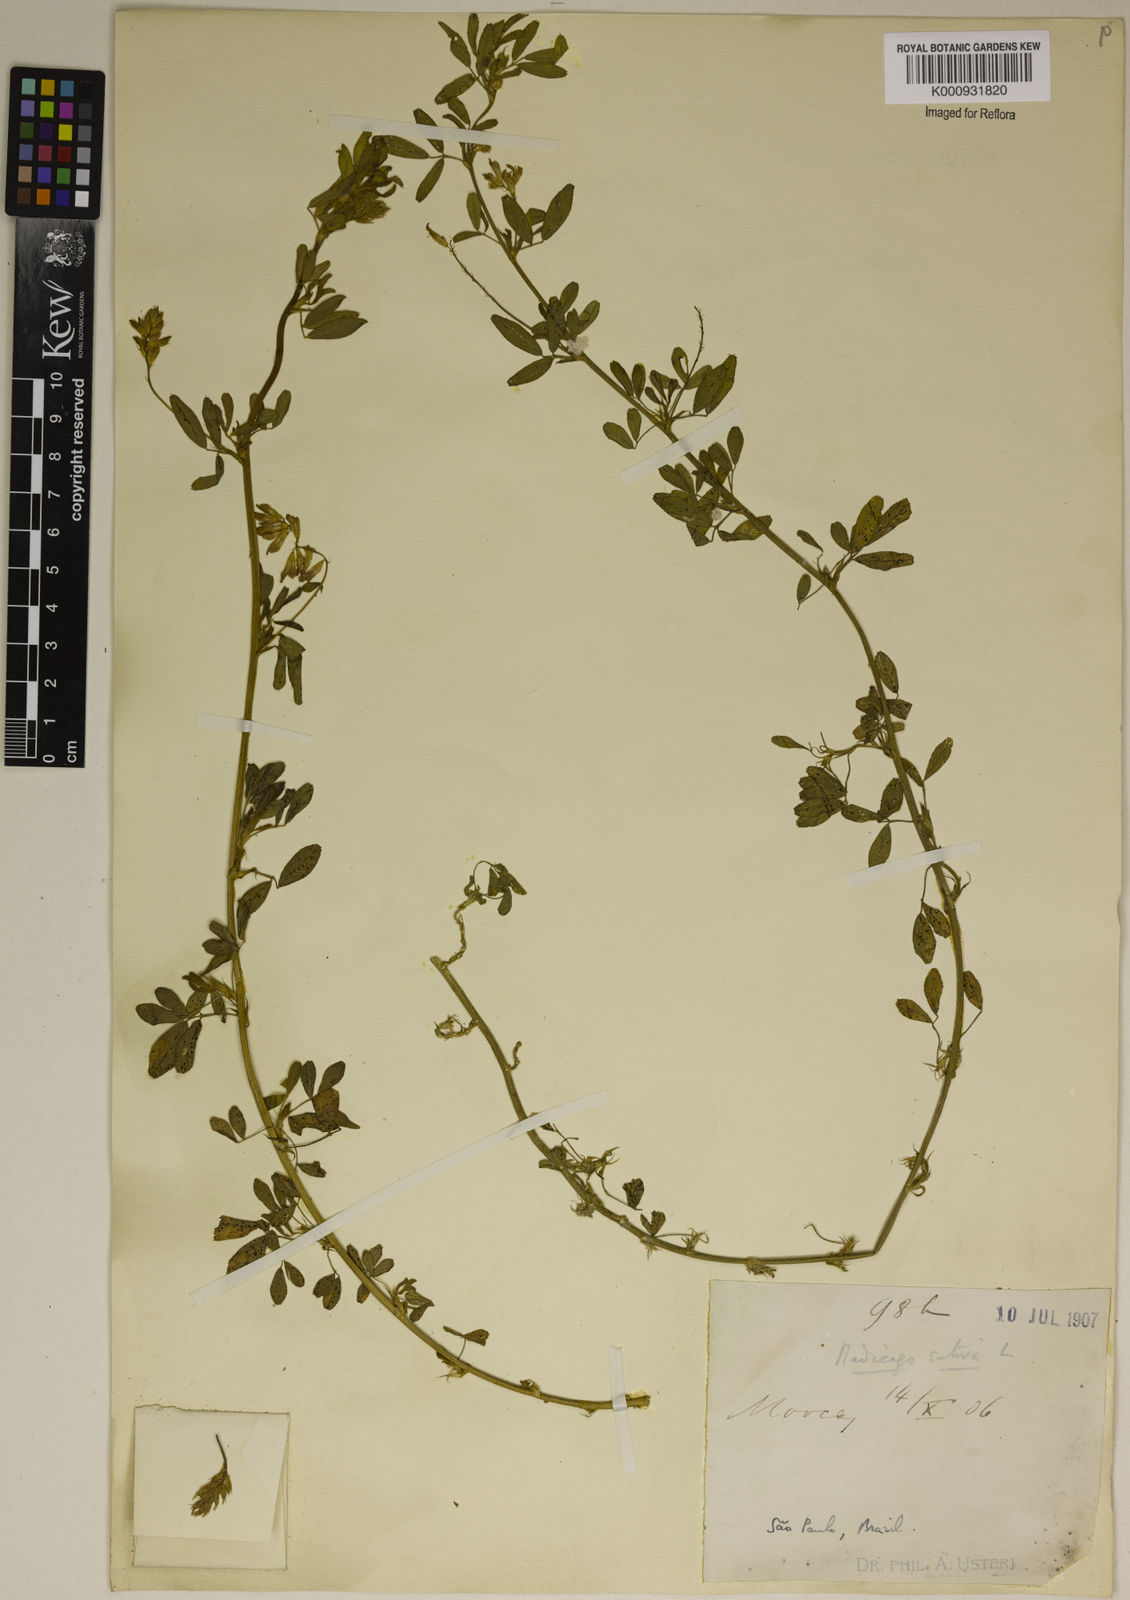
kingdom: Plantae
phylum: Tracheophyta
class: Magnoliopsida
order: Fabales
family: Fabaceae
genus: Medicago
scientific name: Medicago
